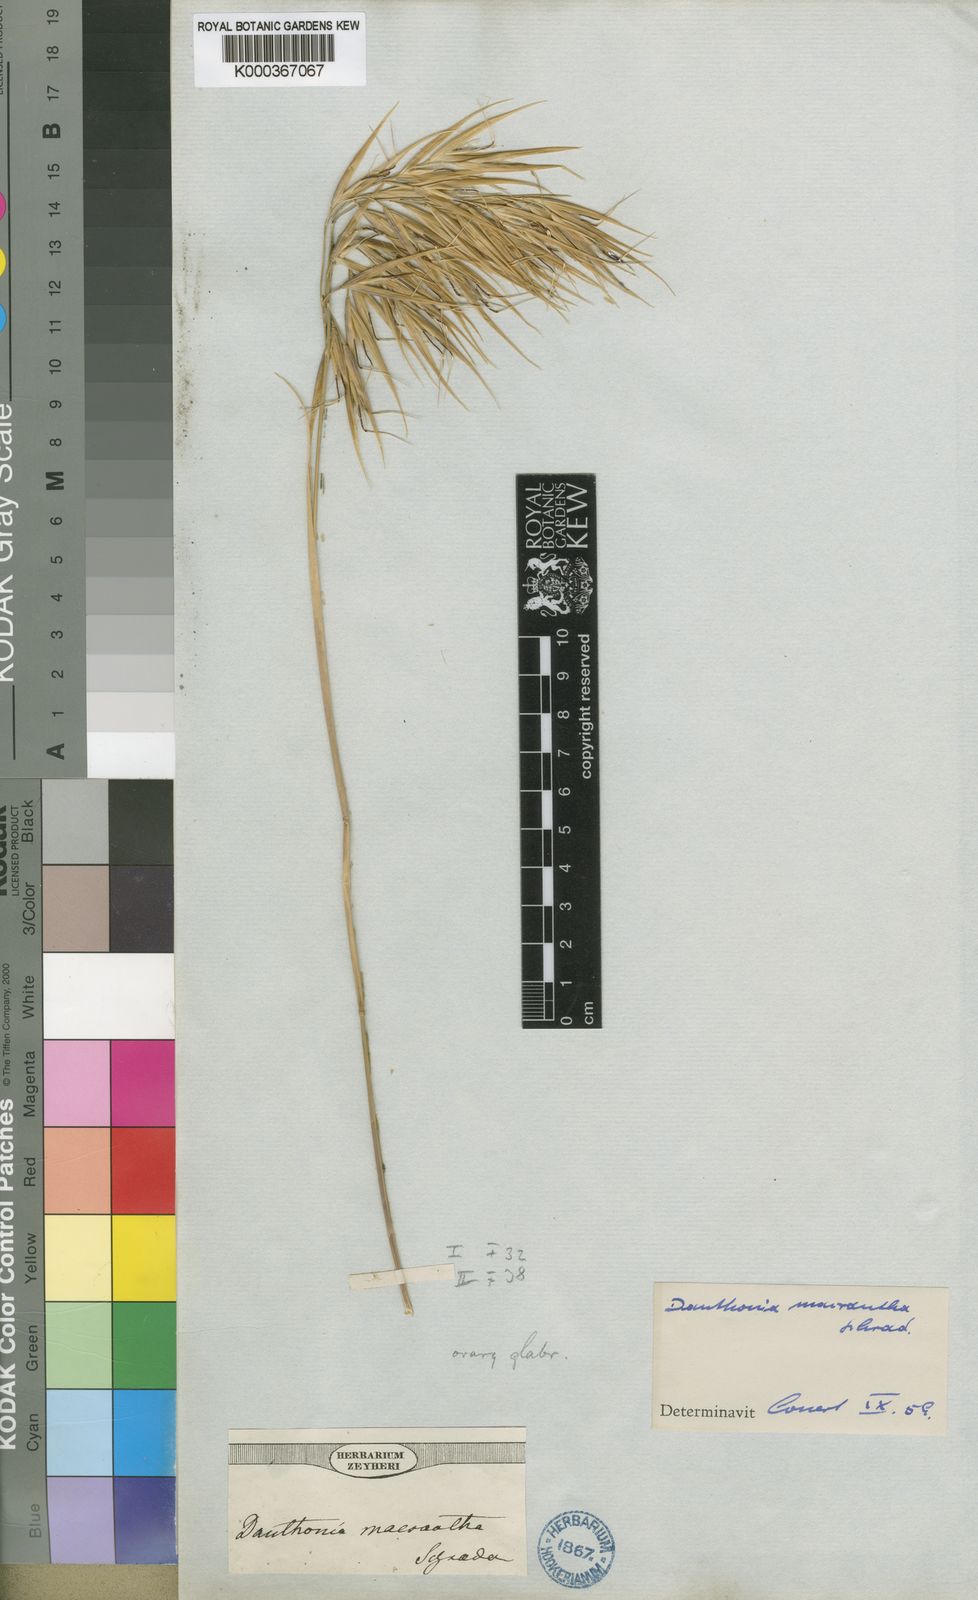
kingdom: Plantae
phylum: Tracheophyta
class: Liliopsida
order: Poales
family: Poaceae
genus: Pseudopentameris
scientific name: Pseudopentameris macrantha
